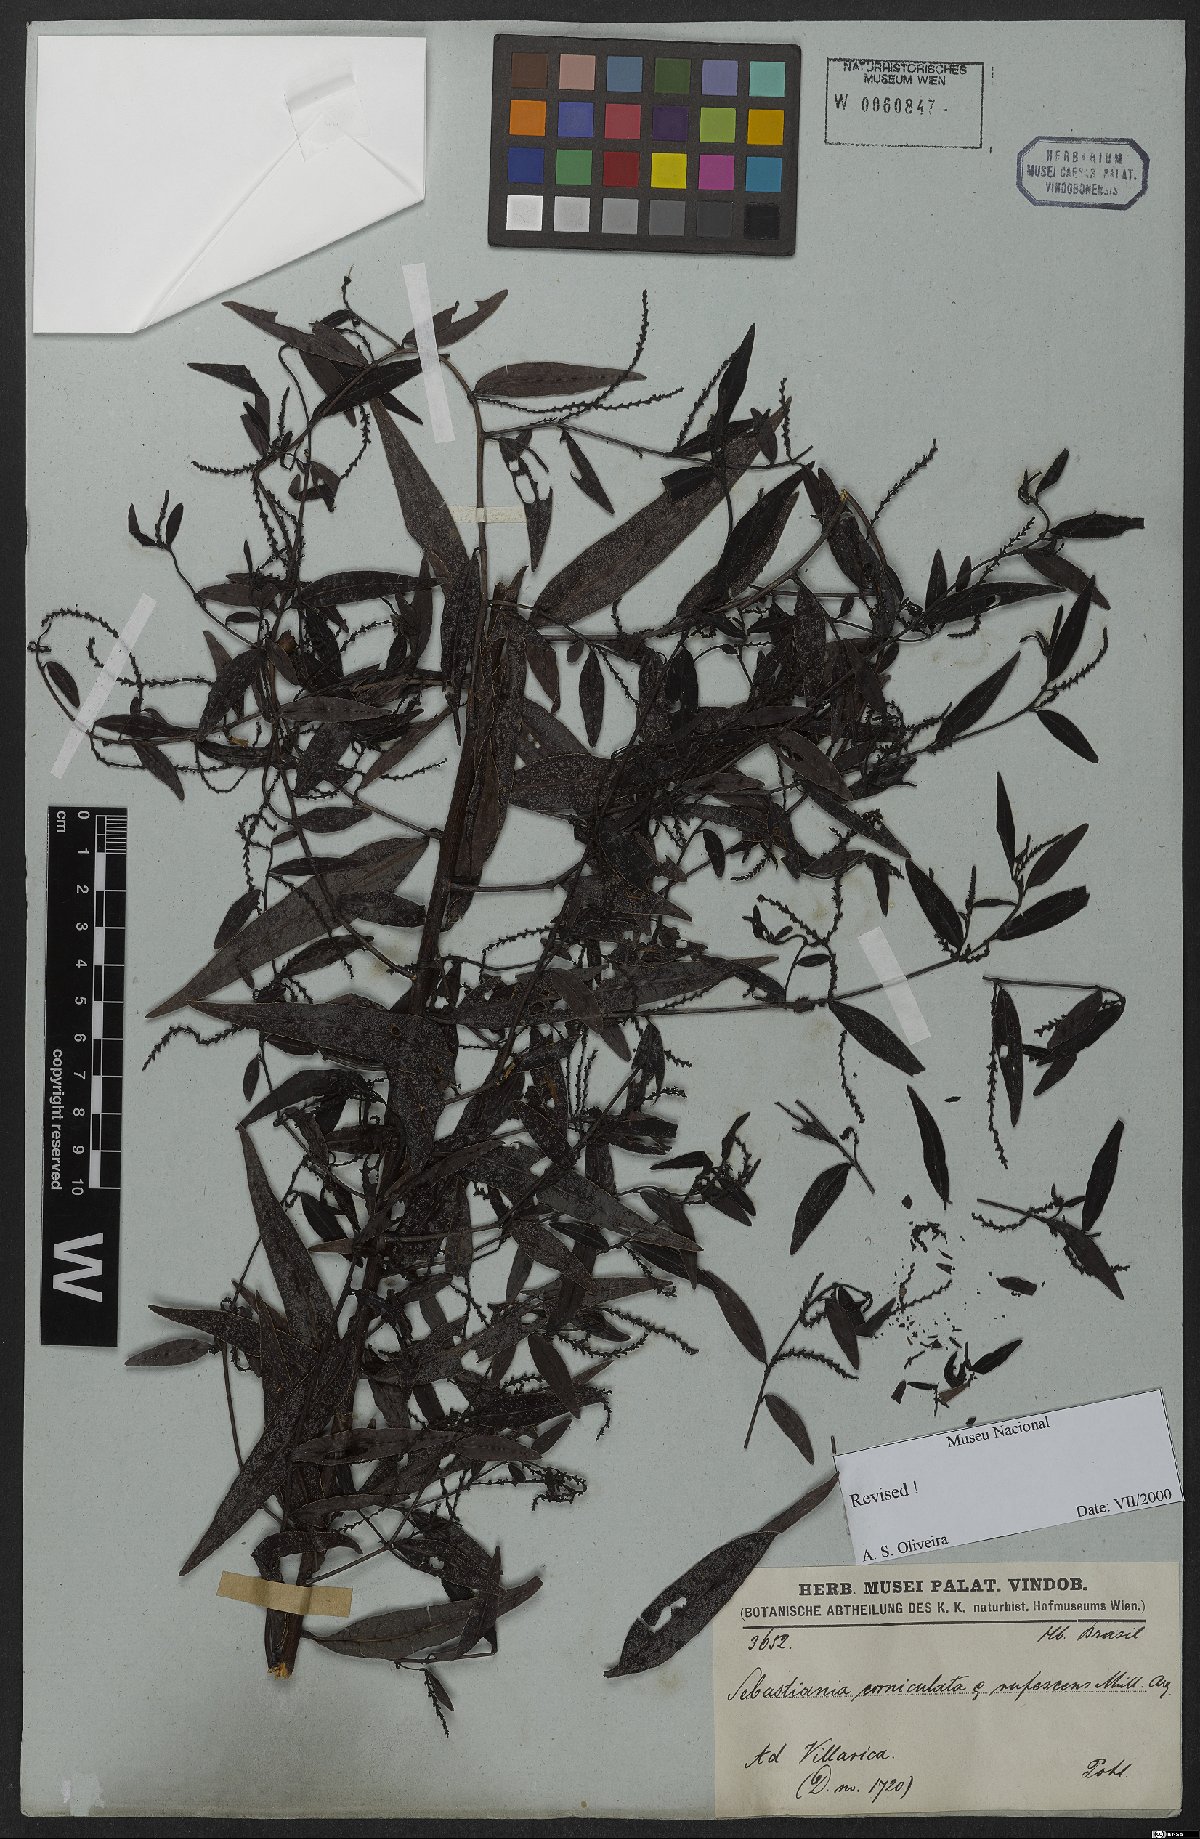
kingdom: Plantae
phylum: Tracheophyta
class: Magnoliopsida
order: Malpighiales
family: Euphorbiaceae
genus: Microstachys
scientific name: Microstachys hispida
